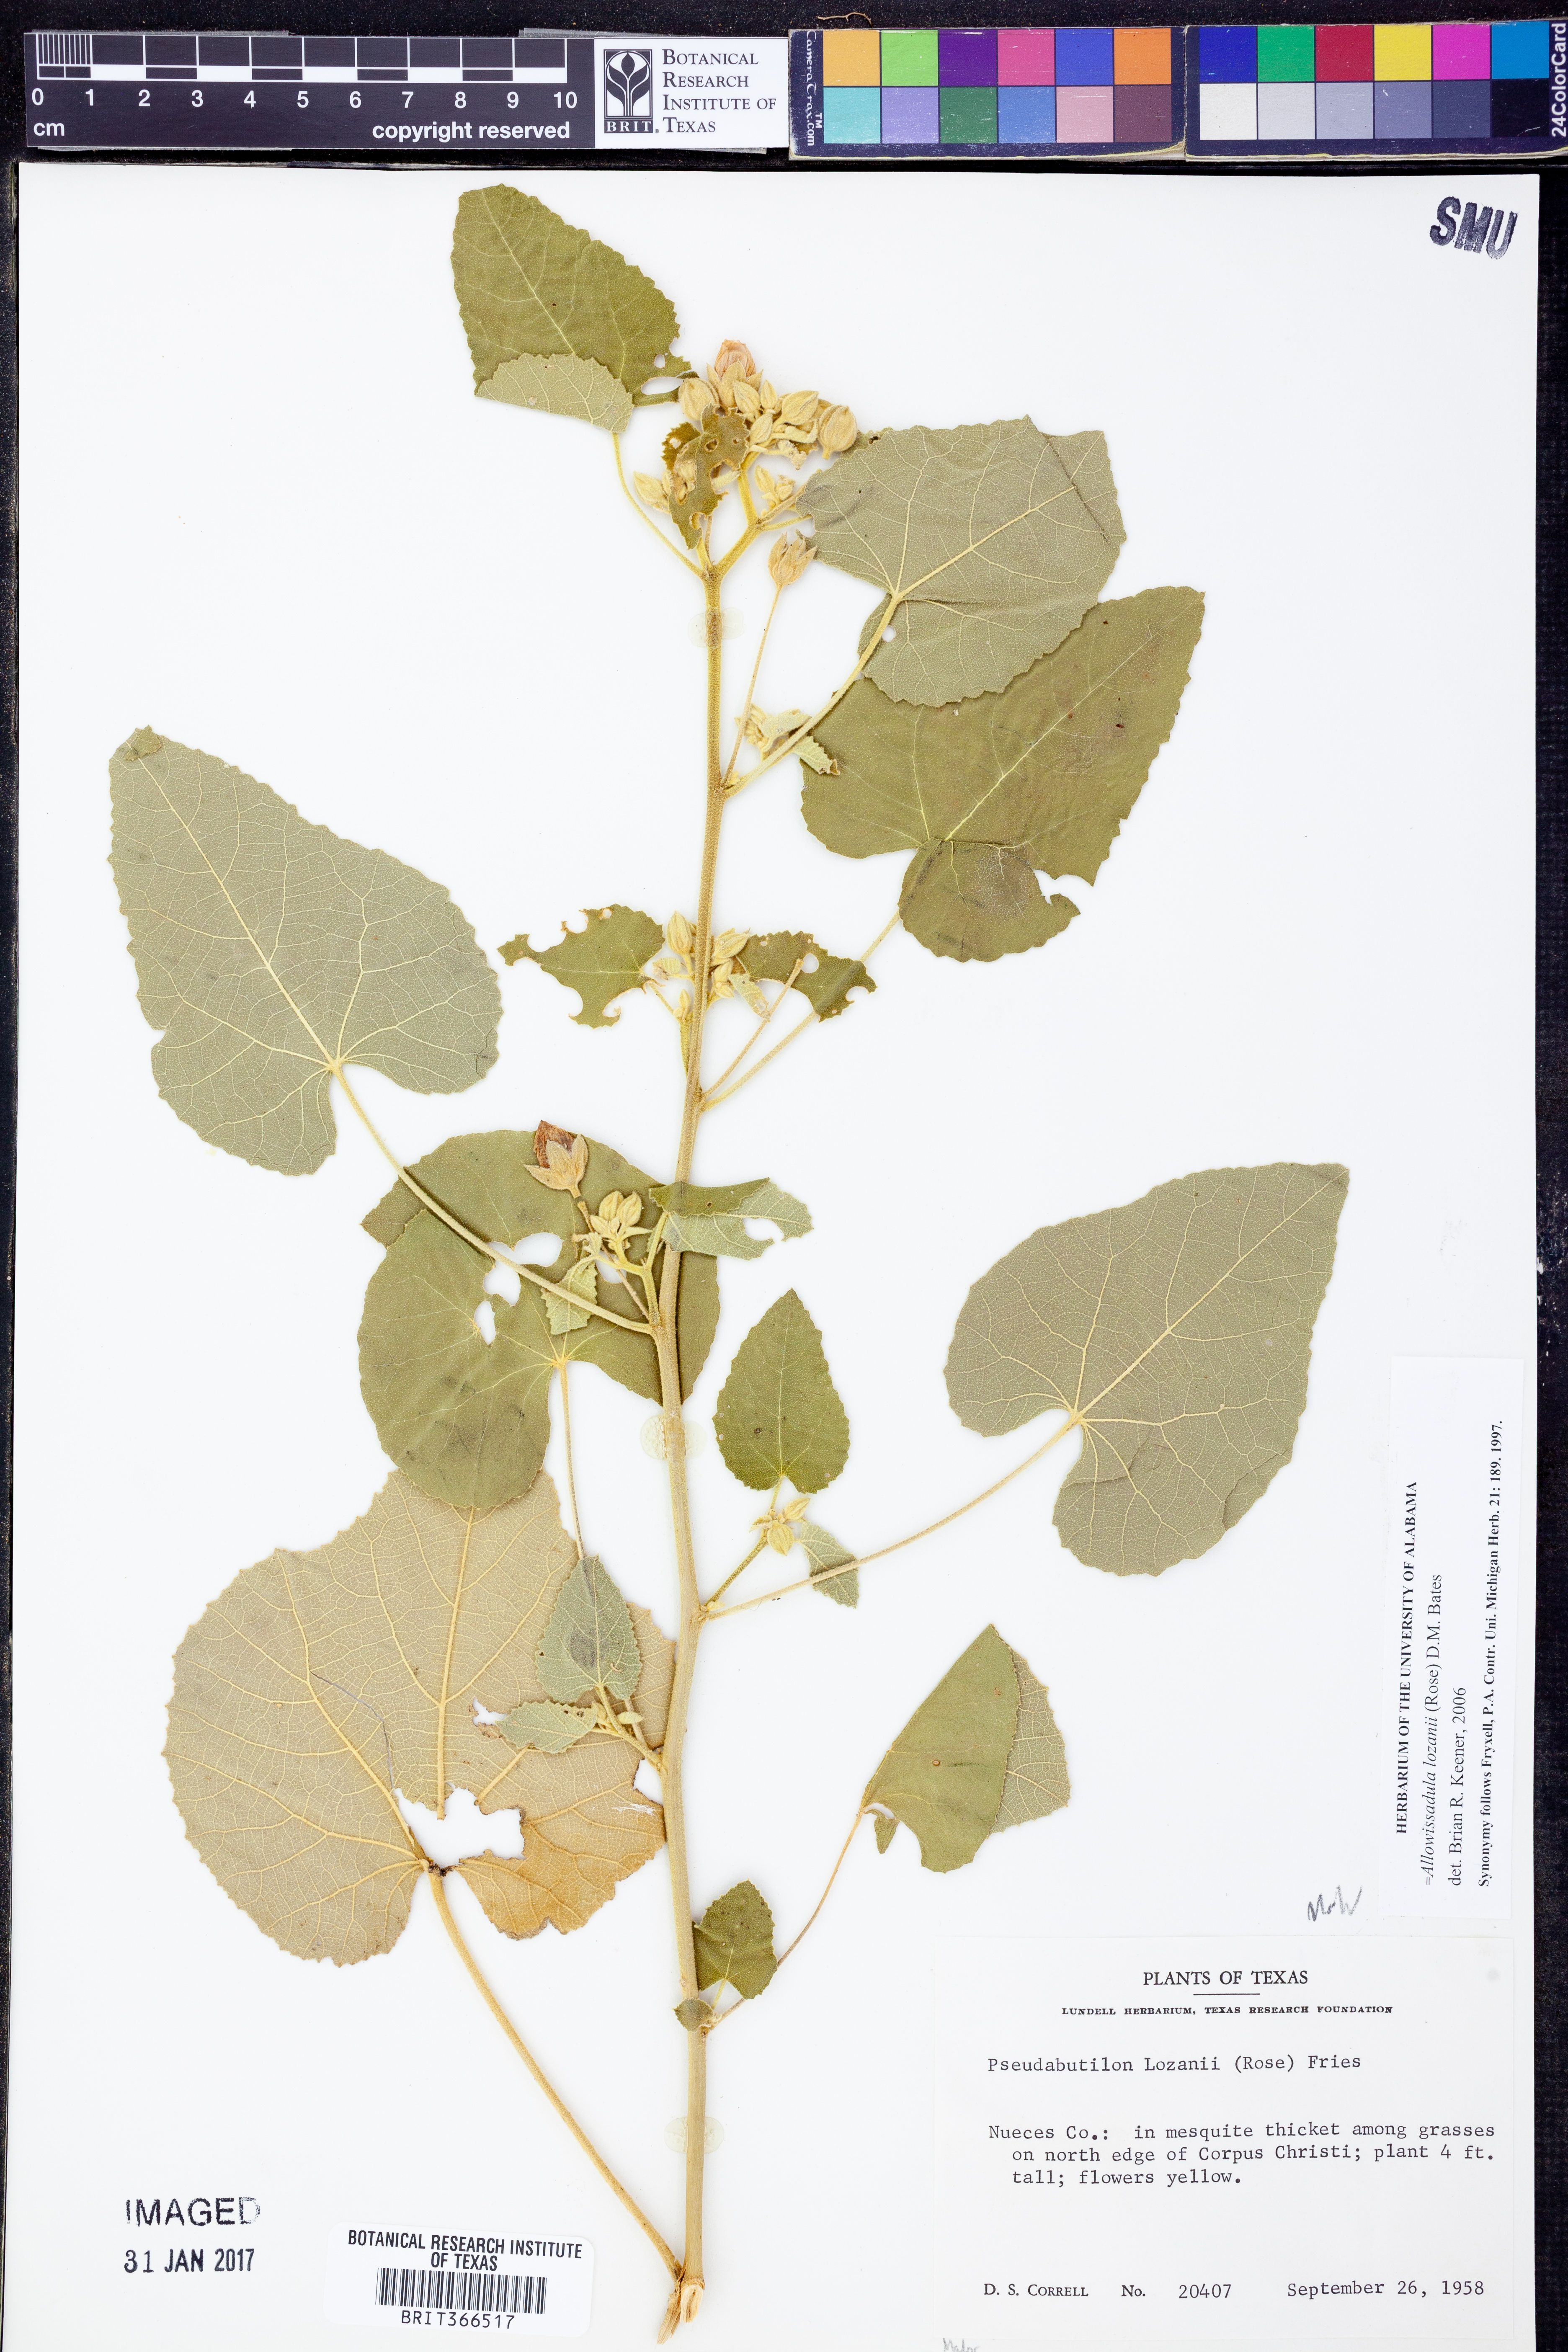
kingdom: Plantae
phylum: Tracheophyta
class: Magnoliopsida
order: Malvales
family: Malvaceae
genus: Allowissadula
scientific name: Allowissadula lozanii
